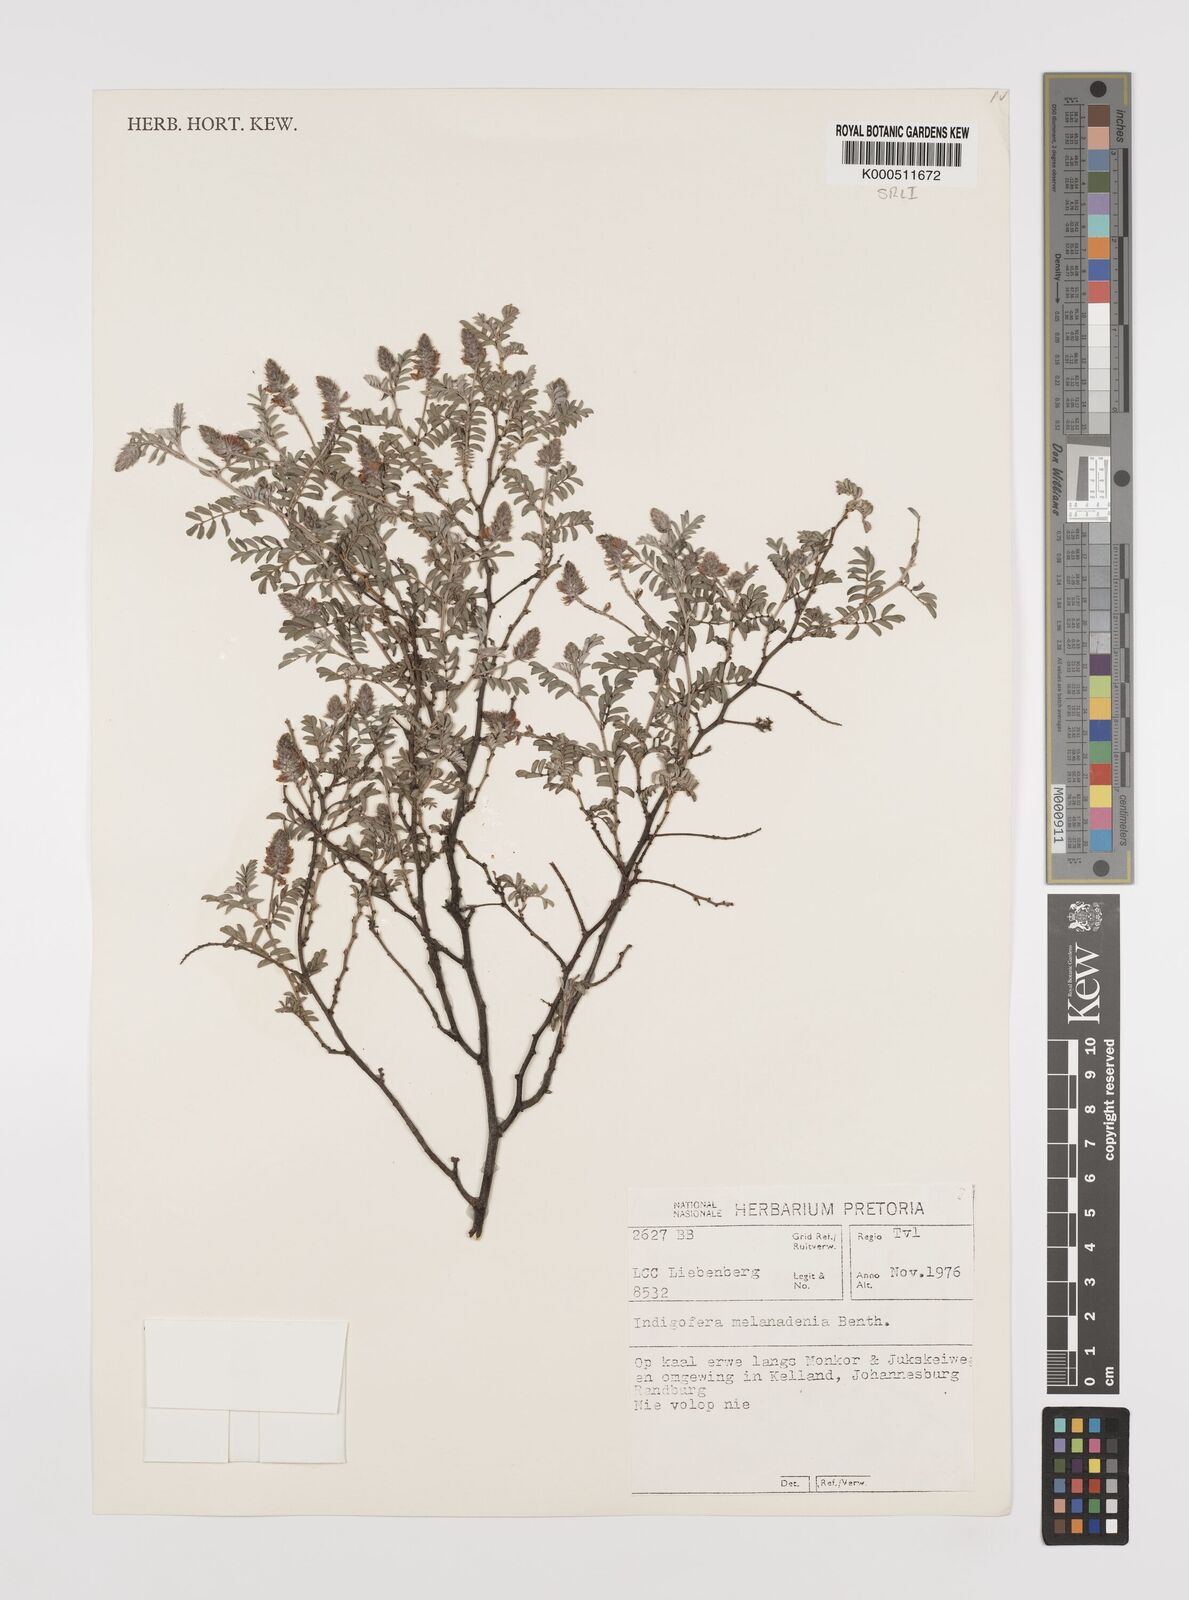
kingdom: Plantae
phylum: Tracheophyta
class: Magnoliopsida
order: Fabales
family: Fabaceae
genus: Indigofera
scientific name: Indigofera melanadenia
